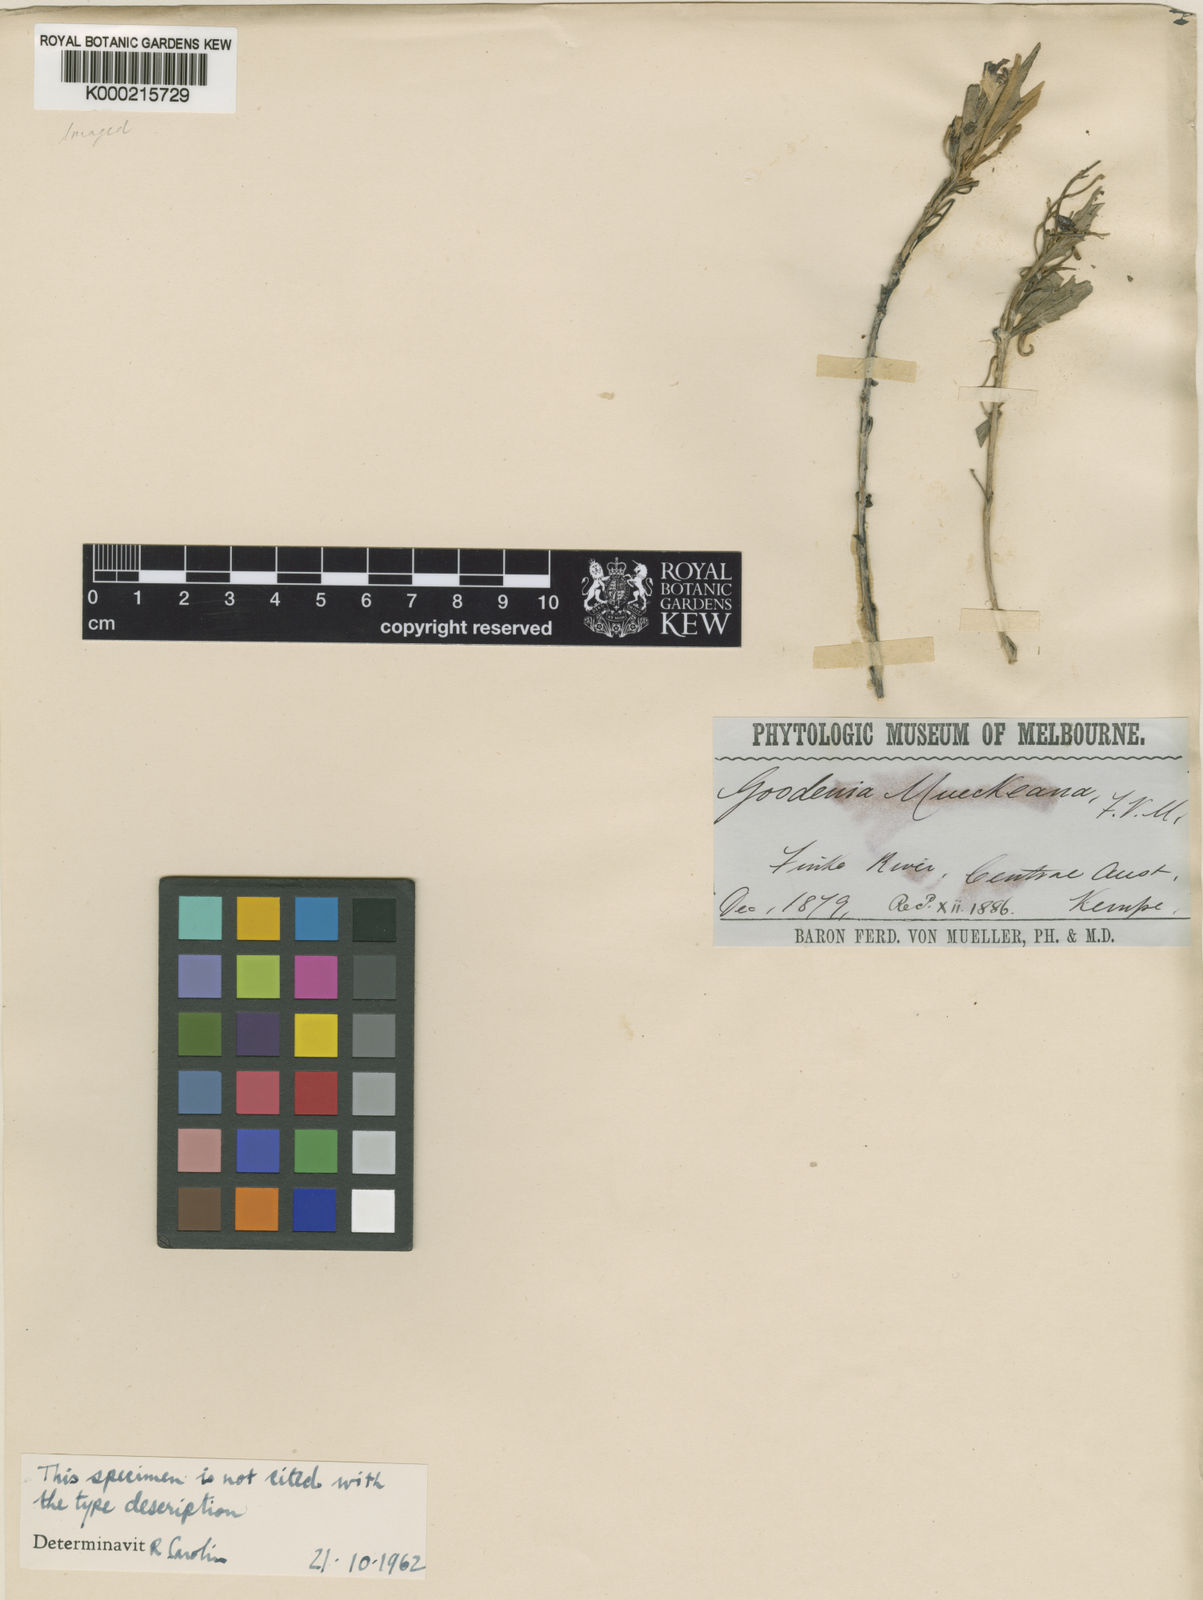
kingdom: Plantae
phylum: Tracheophyta
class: Magnoliopsida
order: Asterales
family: Goodeniaceae
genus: Goodenia
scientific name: Goodenia mueckeana
